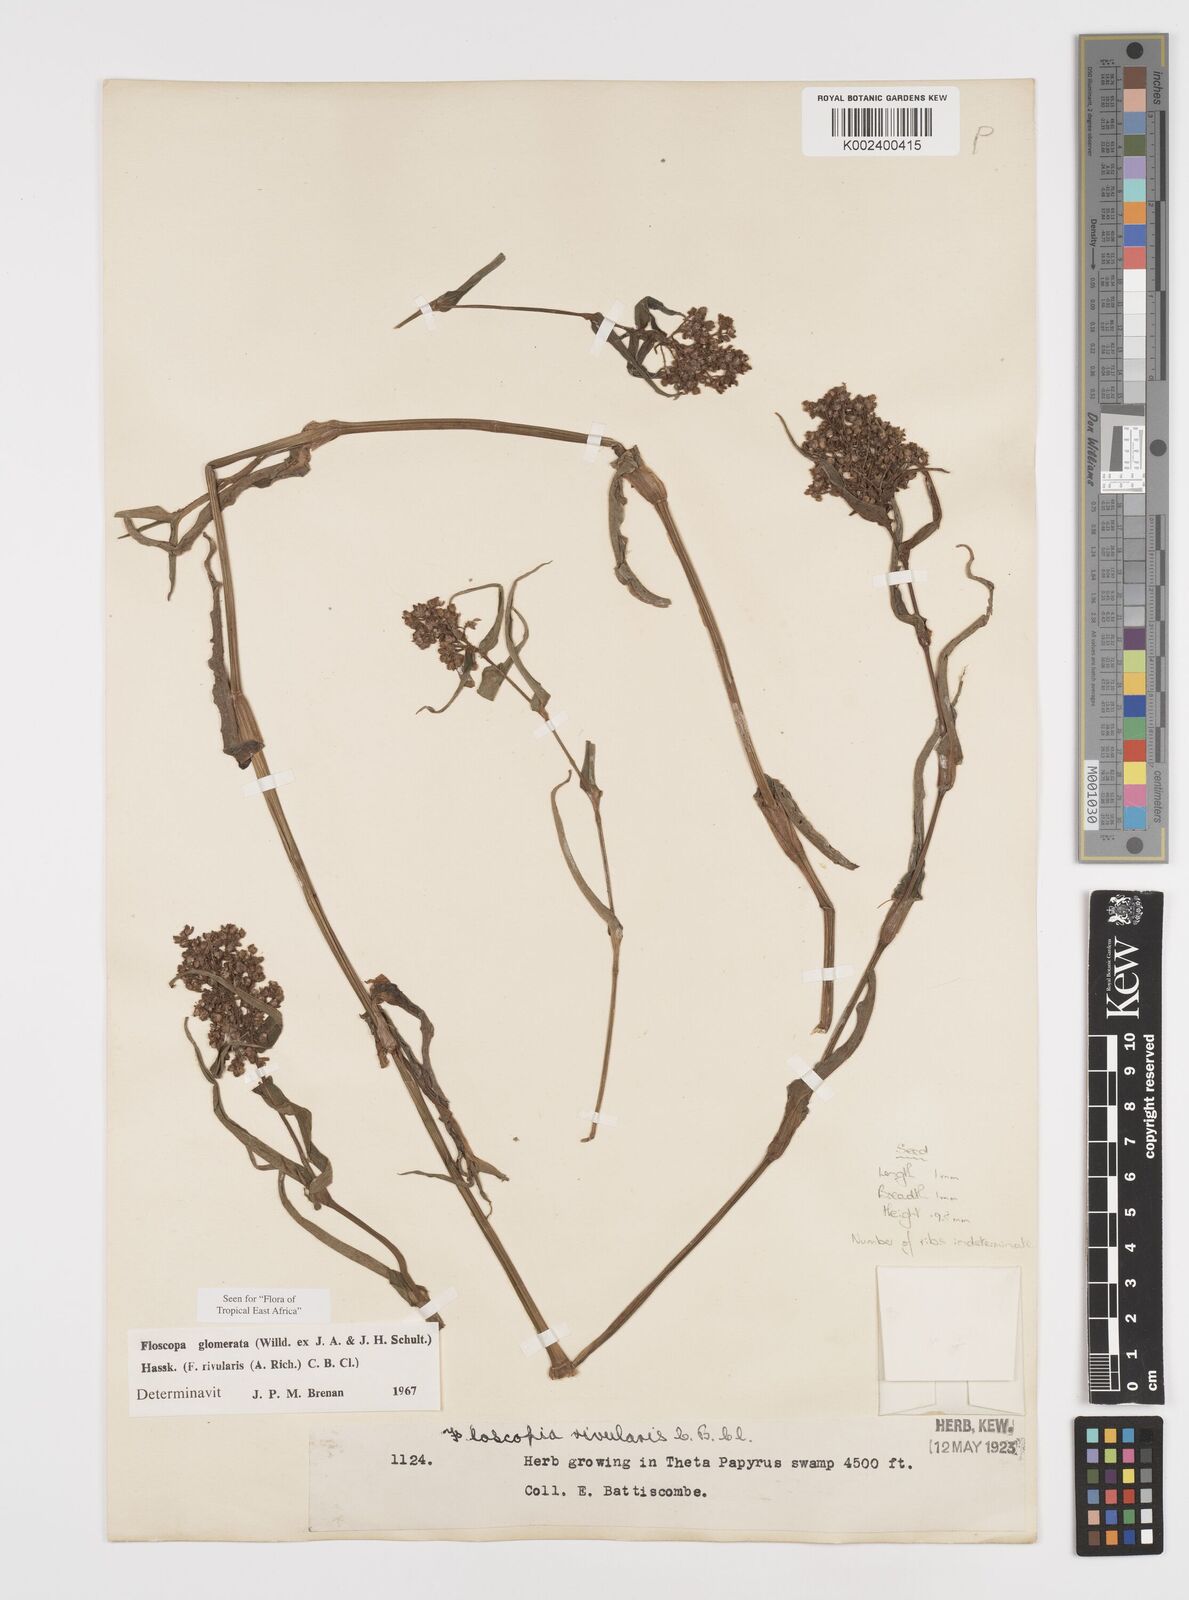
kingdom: Plantae
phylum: Tracheophyta
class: Liliopsida
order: Commelinales
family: Commelinaceae
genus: Floscopa
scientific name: Floscopa glomerata
